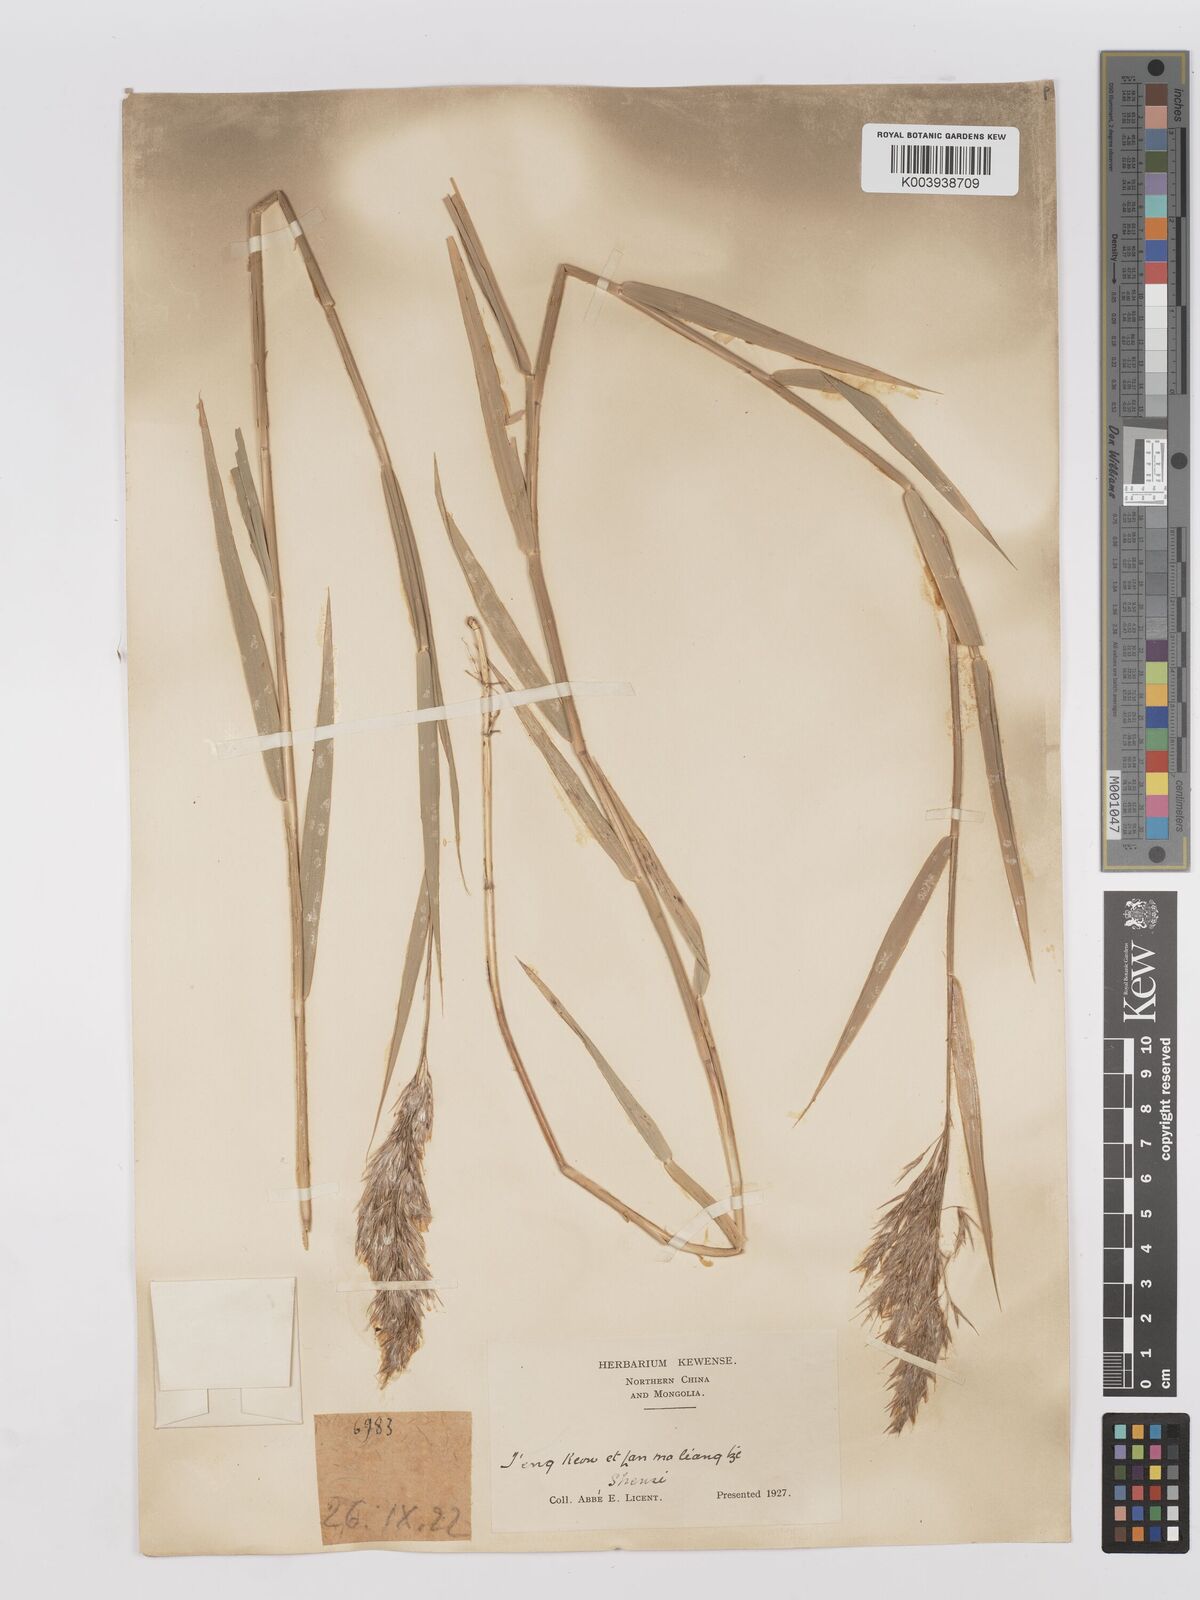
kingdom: Plantae
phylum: Tracheophyta
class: Liliopsida
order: Poales
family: Poaceae
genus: Phragmites
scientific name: Phragmites australis
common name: Common reed
